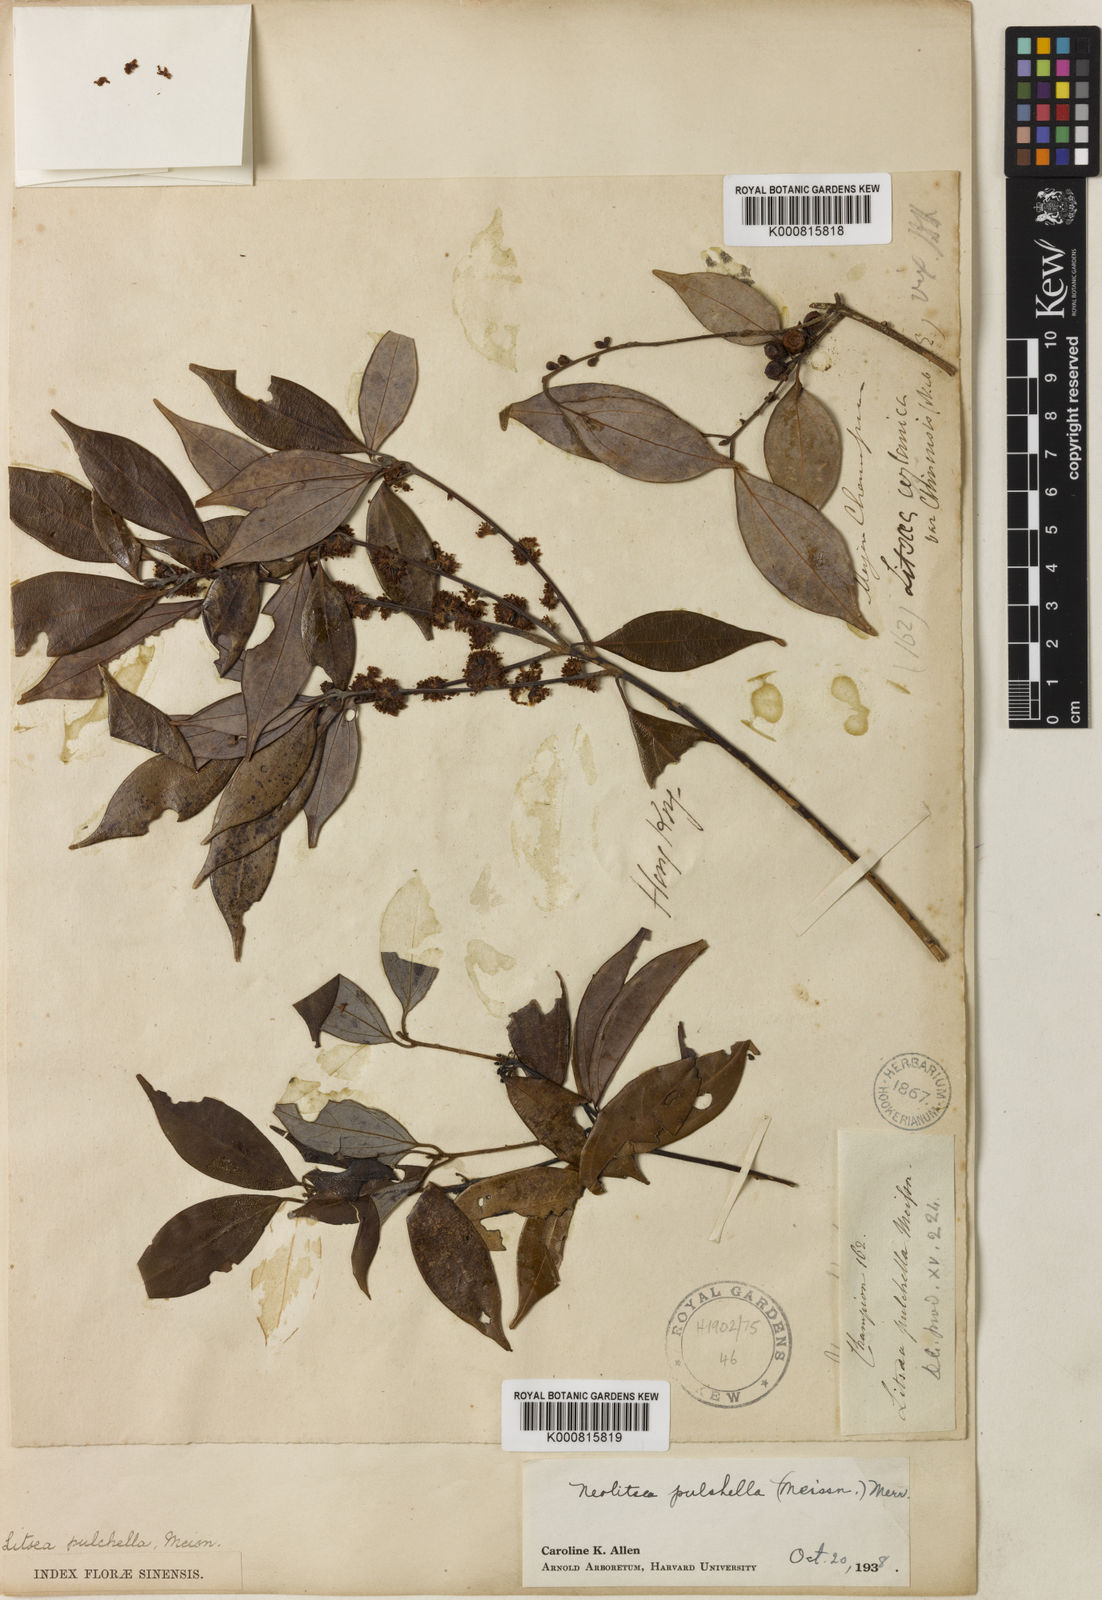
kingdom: Plantae
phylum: Tracheophyta
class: Magnoliopsida
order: Laurales
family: Lauraceae
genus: Neolitsea
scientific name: Neolitsea pulchella
